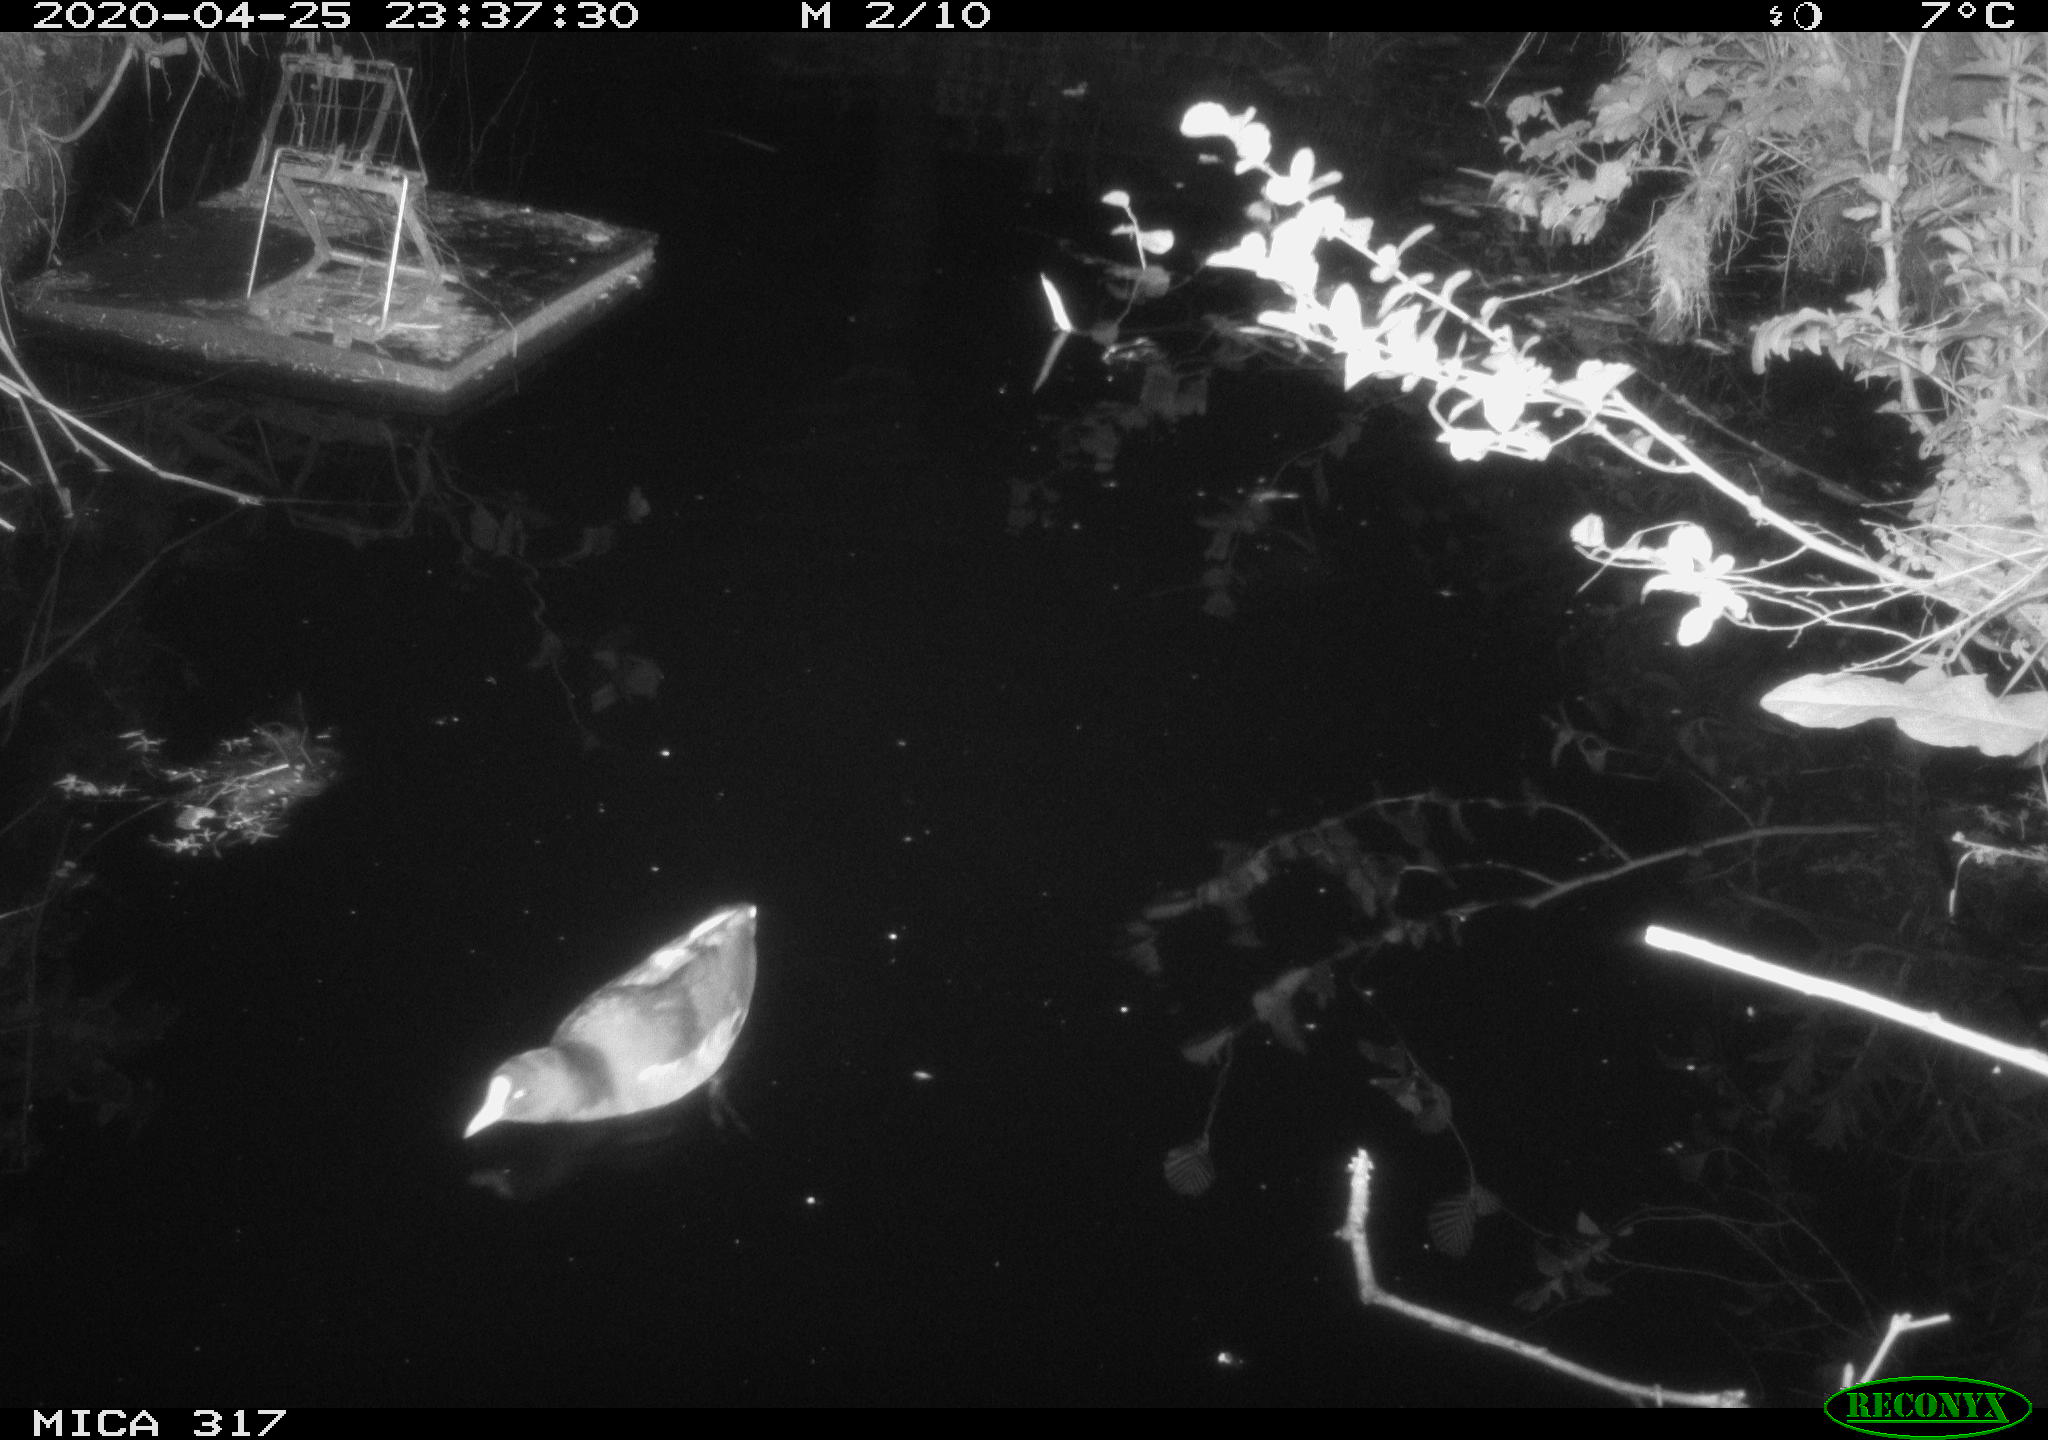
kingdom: Animalia
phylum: Chordata
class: Aves
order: Gruiformes
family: Rallidae
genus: Gallinula
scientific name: Gallinula chloropus
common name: Common moorhen
